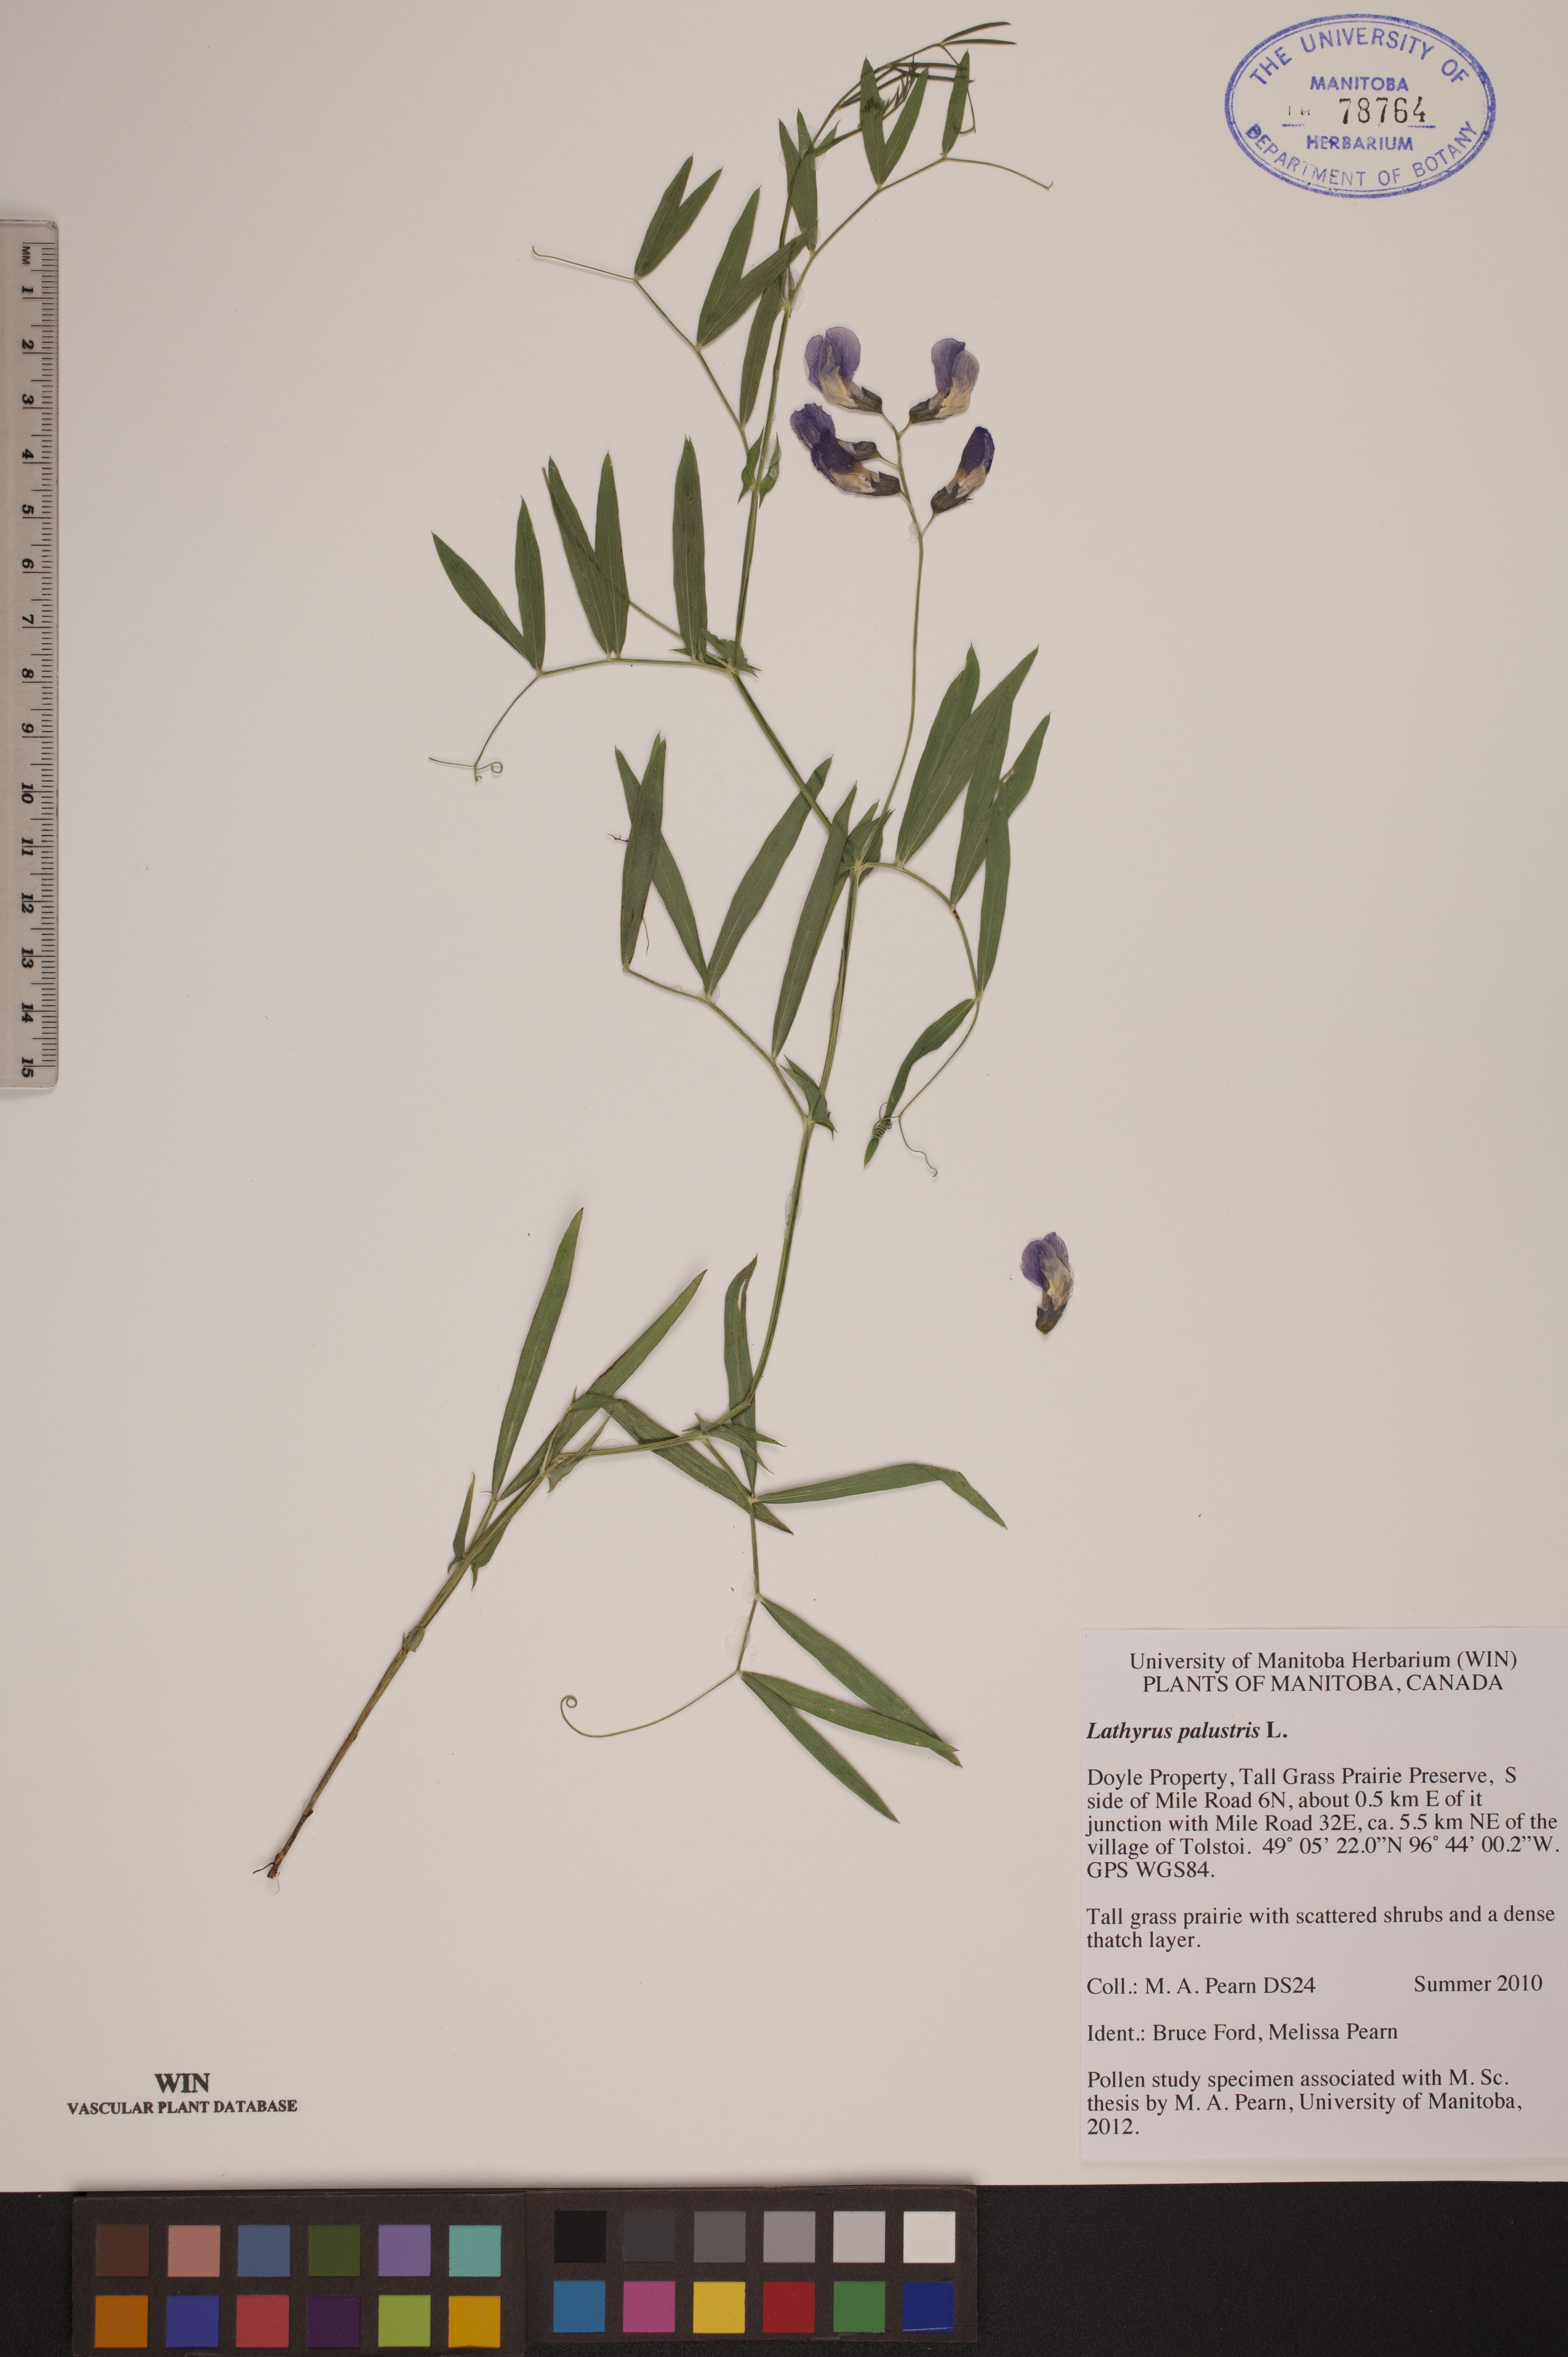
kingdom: Plantae
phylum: Tracheophyta
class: Magnoliopsida
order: Fabales
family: Fabaceae
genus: Lathyrus
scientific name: Lathyrus palustris
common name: Marsh pea
